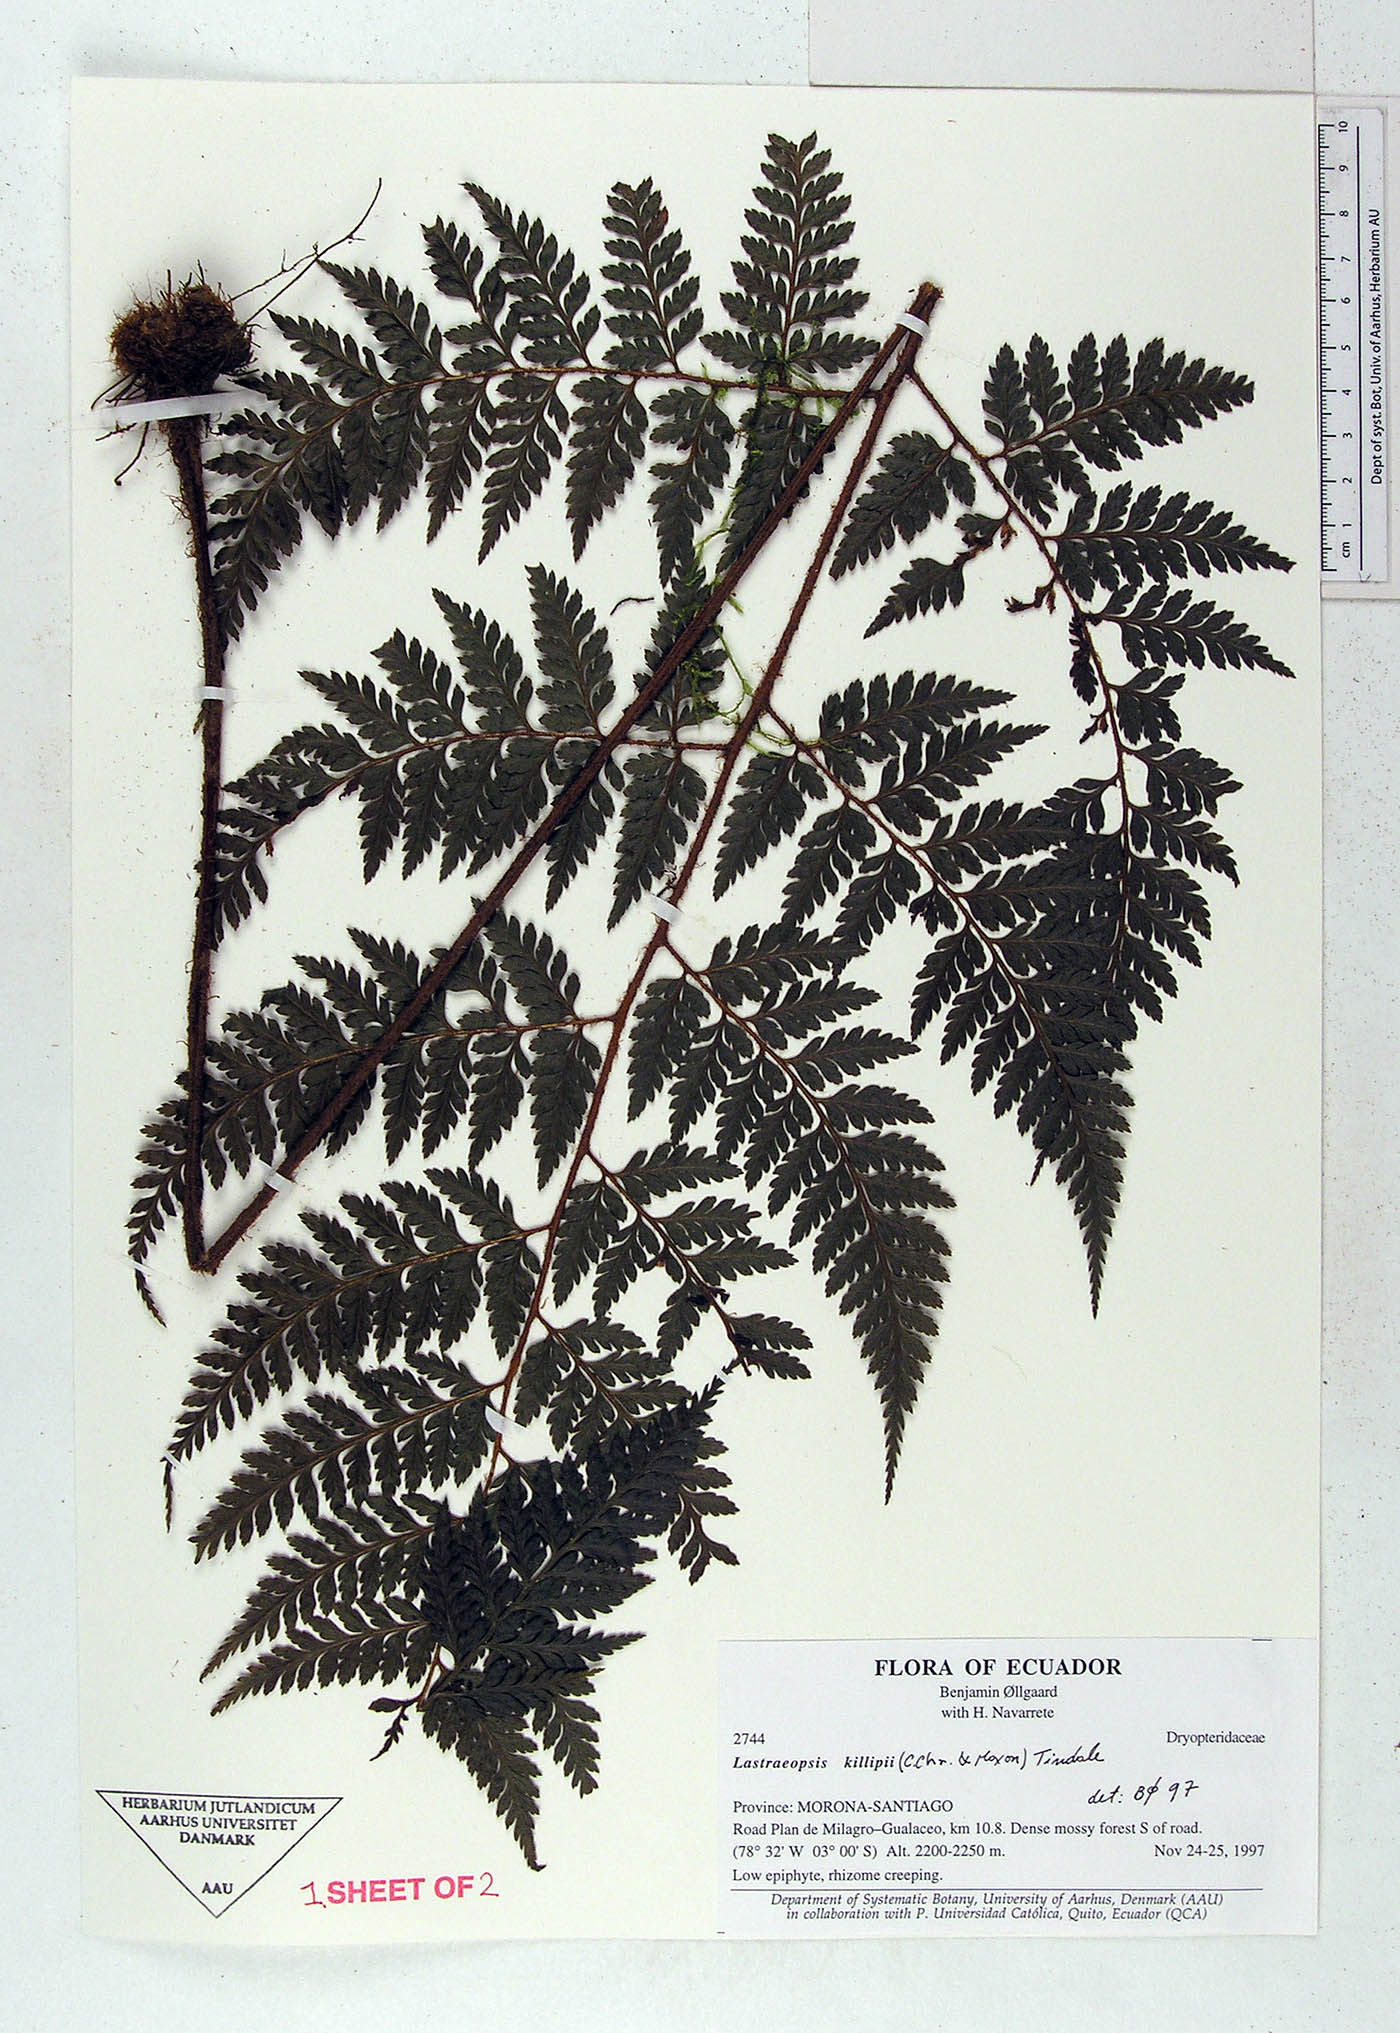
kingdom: Plantae
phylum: Tracheophyta
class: Polypodiopsida
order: Polypodiales
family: Dryopteridaceae
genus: Lastreopsis
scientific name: Lastreopsis killipii
